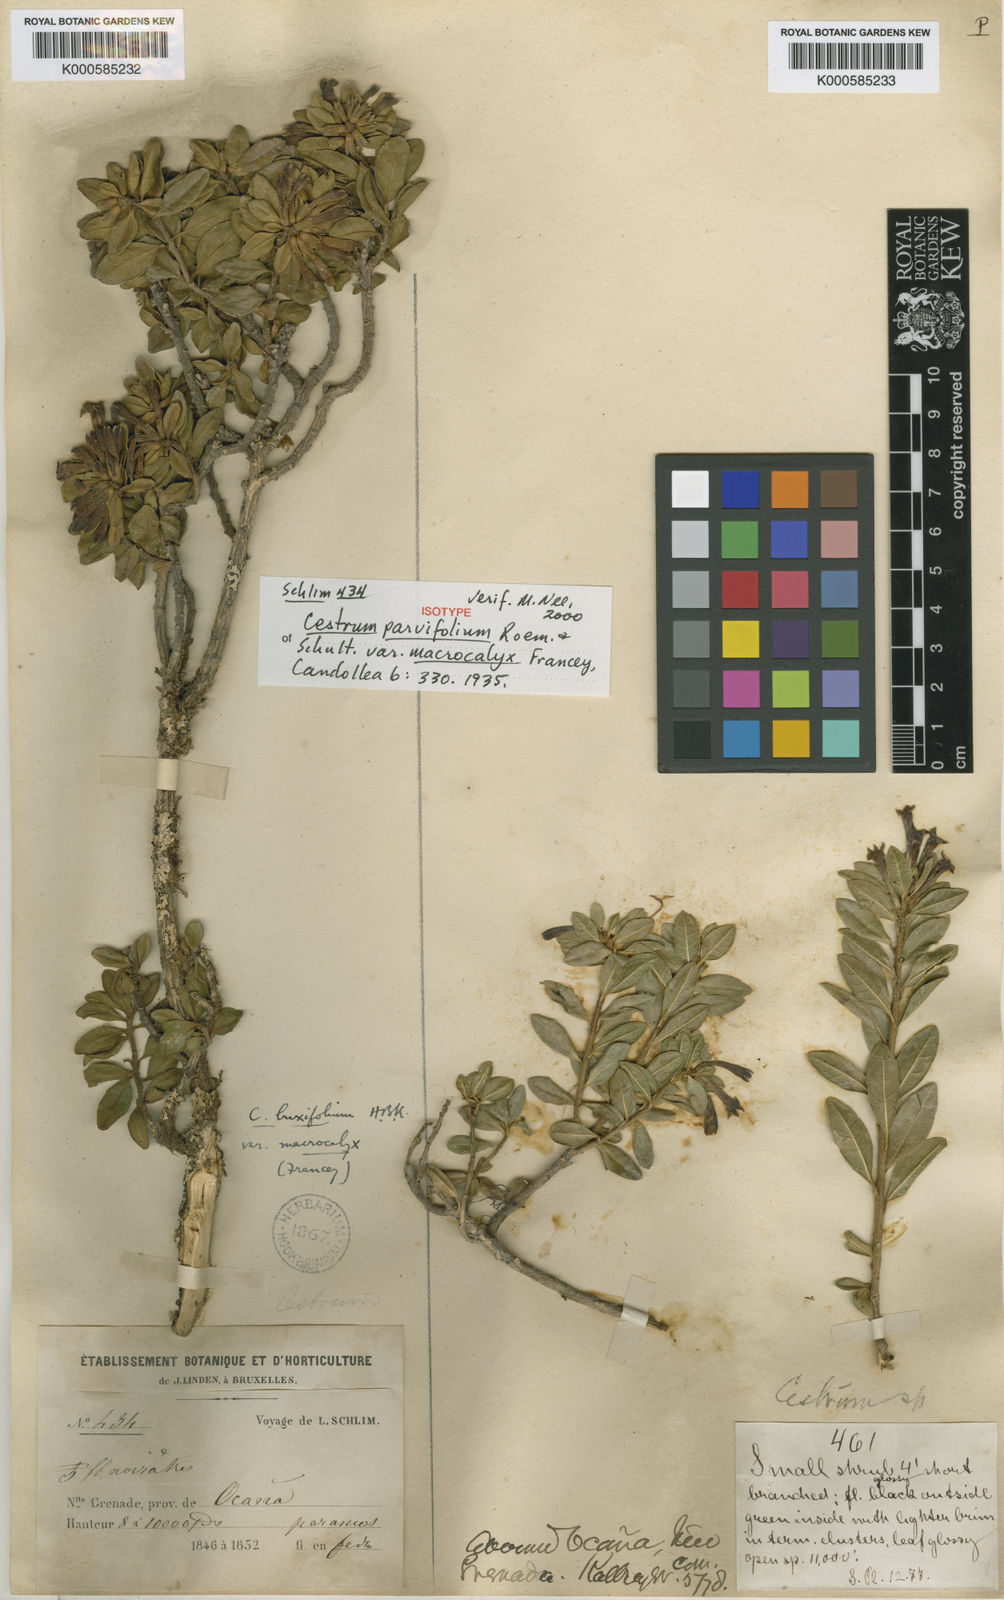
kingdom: Plantae
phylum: Tracheophyta
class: Magnoliopsida
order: Solanales
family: Solanaceae
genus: Cestrum
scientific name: Cestrum buxifolium
